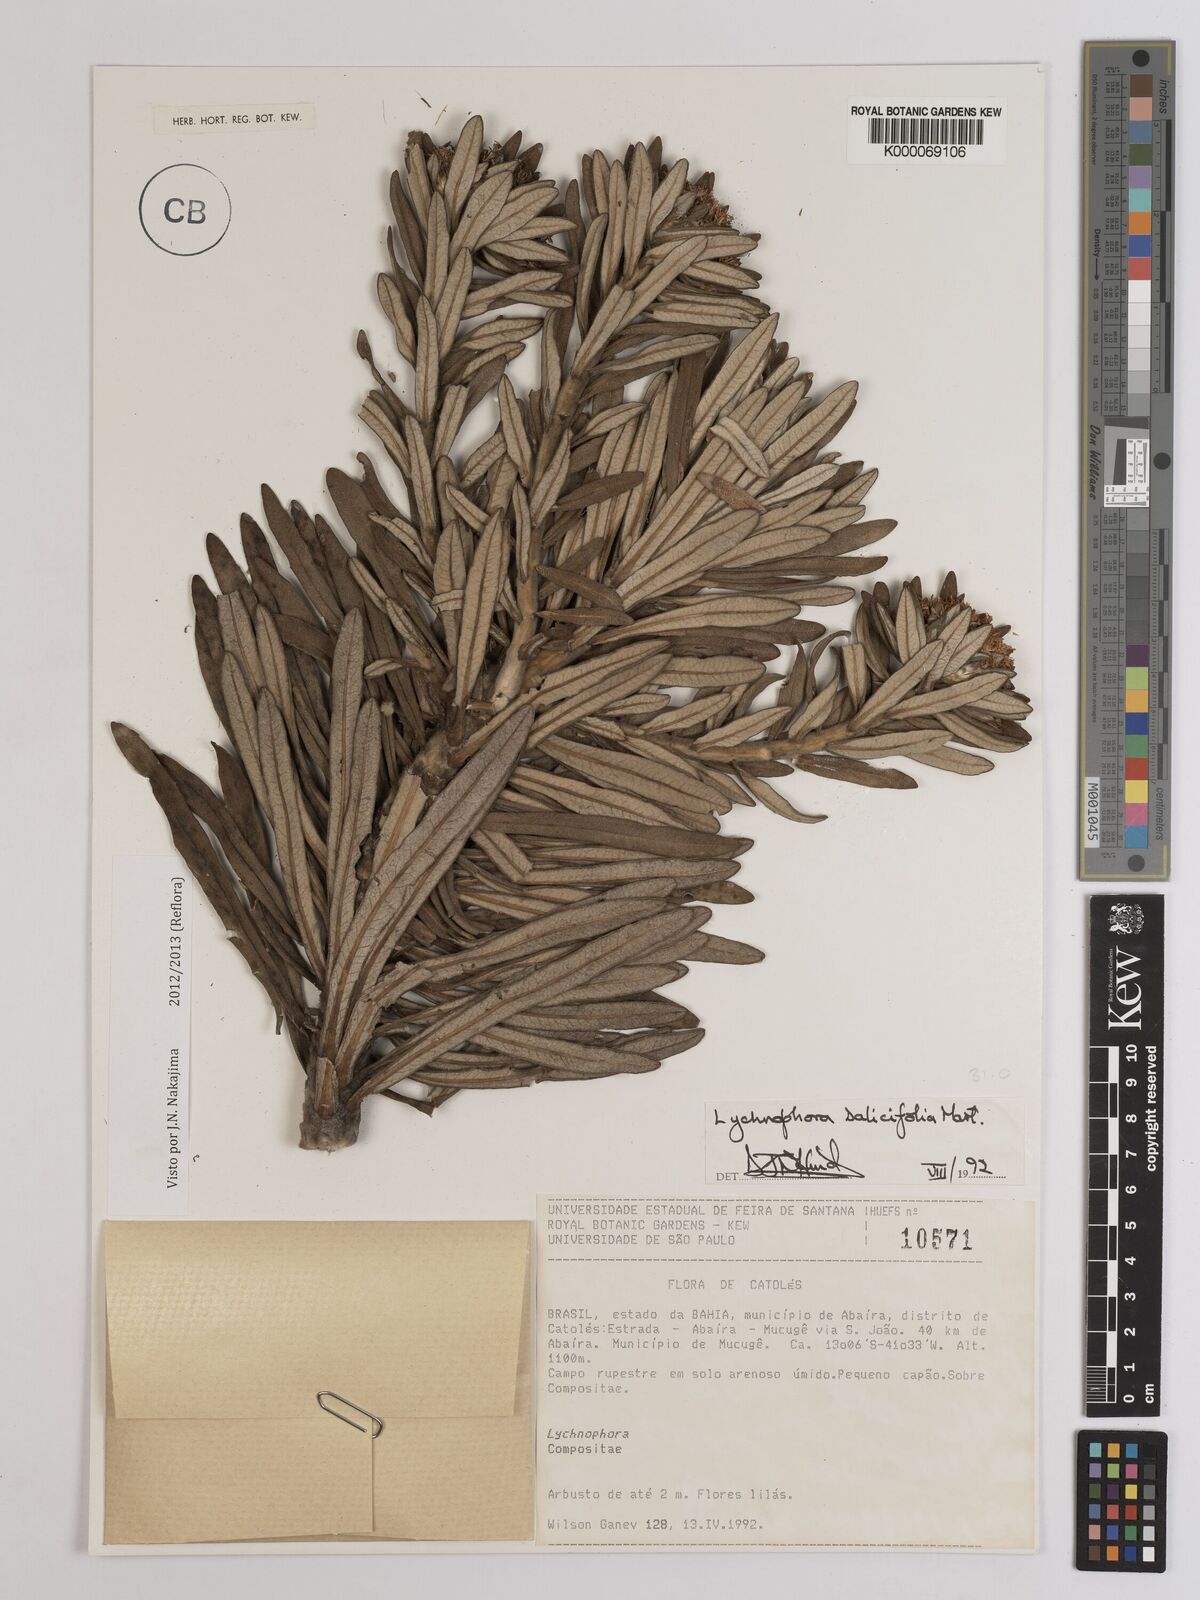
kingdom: Plantae
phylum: Tracheophyta
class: Magnoliopsida
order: Asterales
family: Asteraceae
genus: Lychnophora
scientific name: Lychnophora salicifolia
